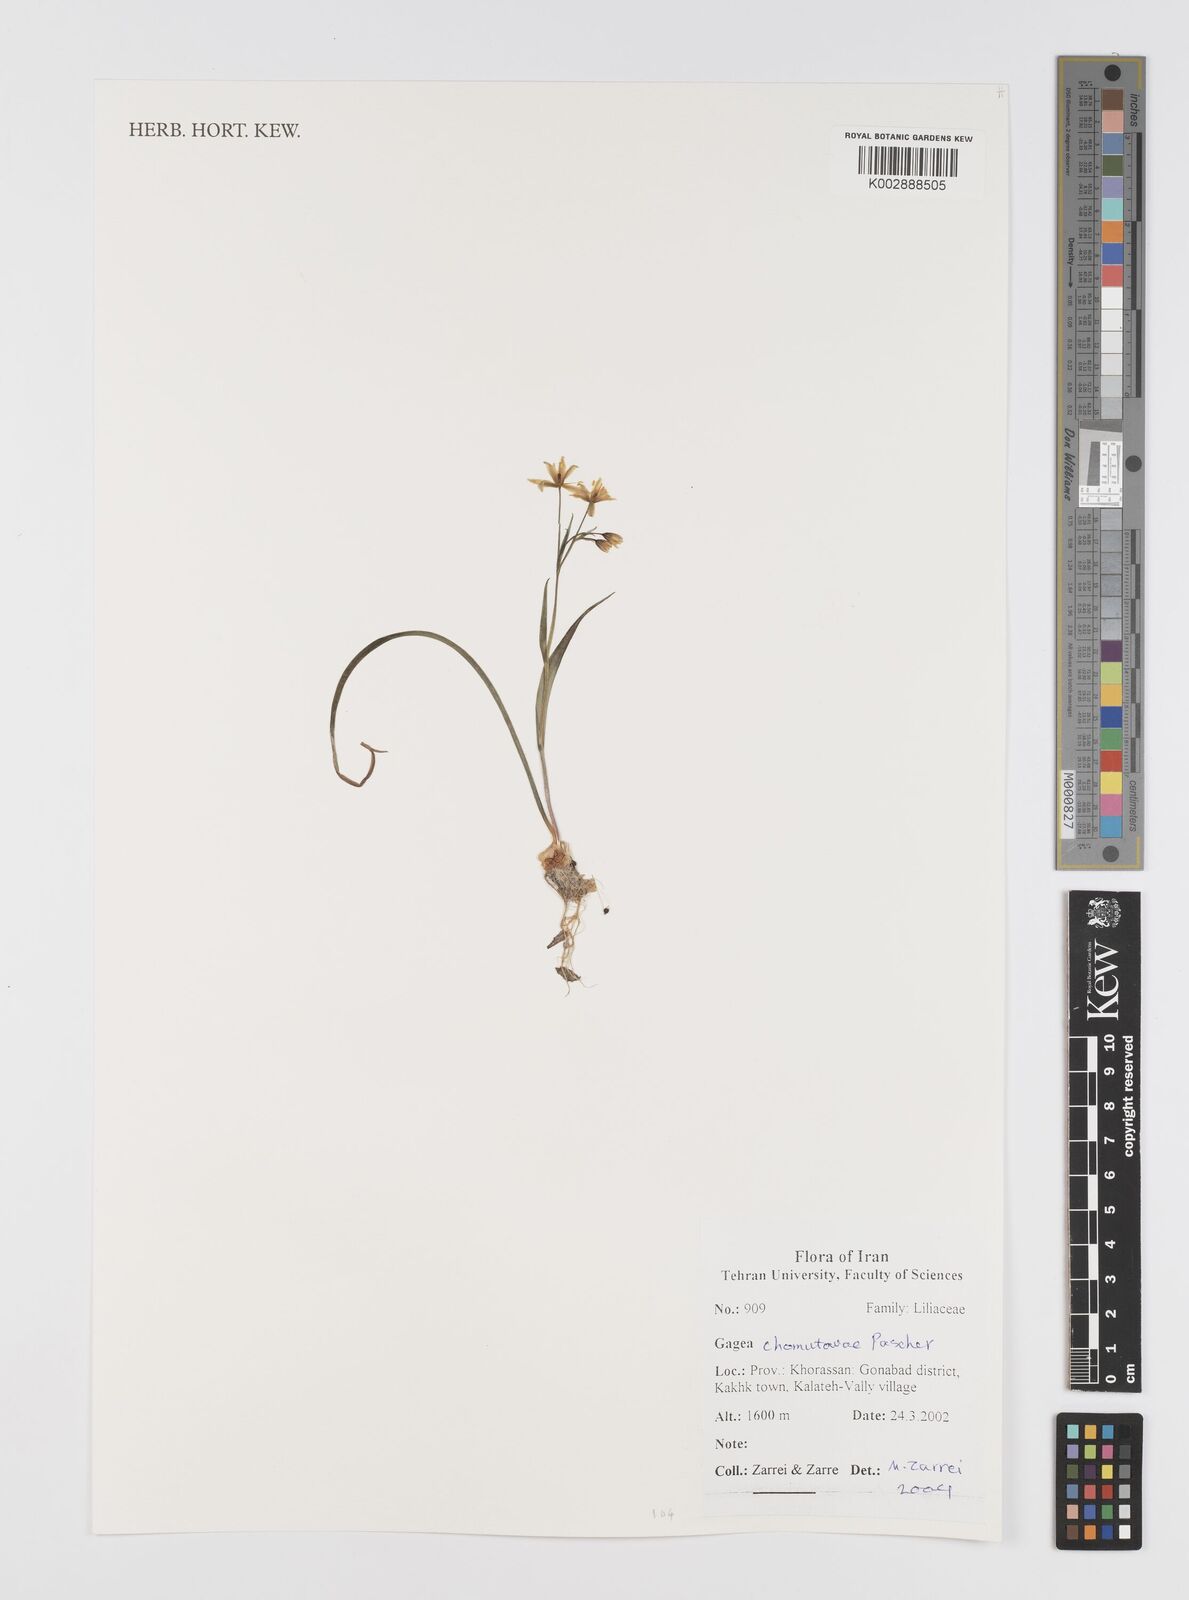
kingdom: Plantae
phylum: Tracheophyta
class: Liliopsida
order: Liliales
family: Liliaceae
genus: Gagea
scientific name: Gagea chomutovae
